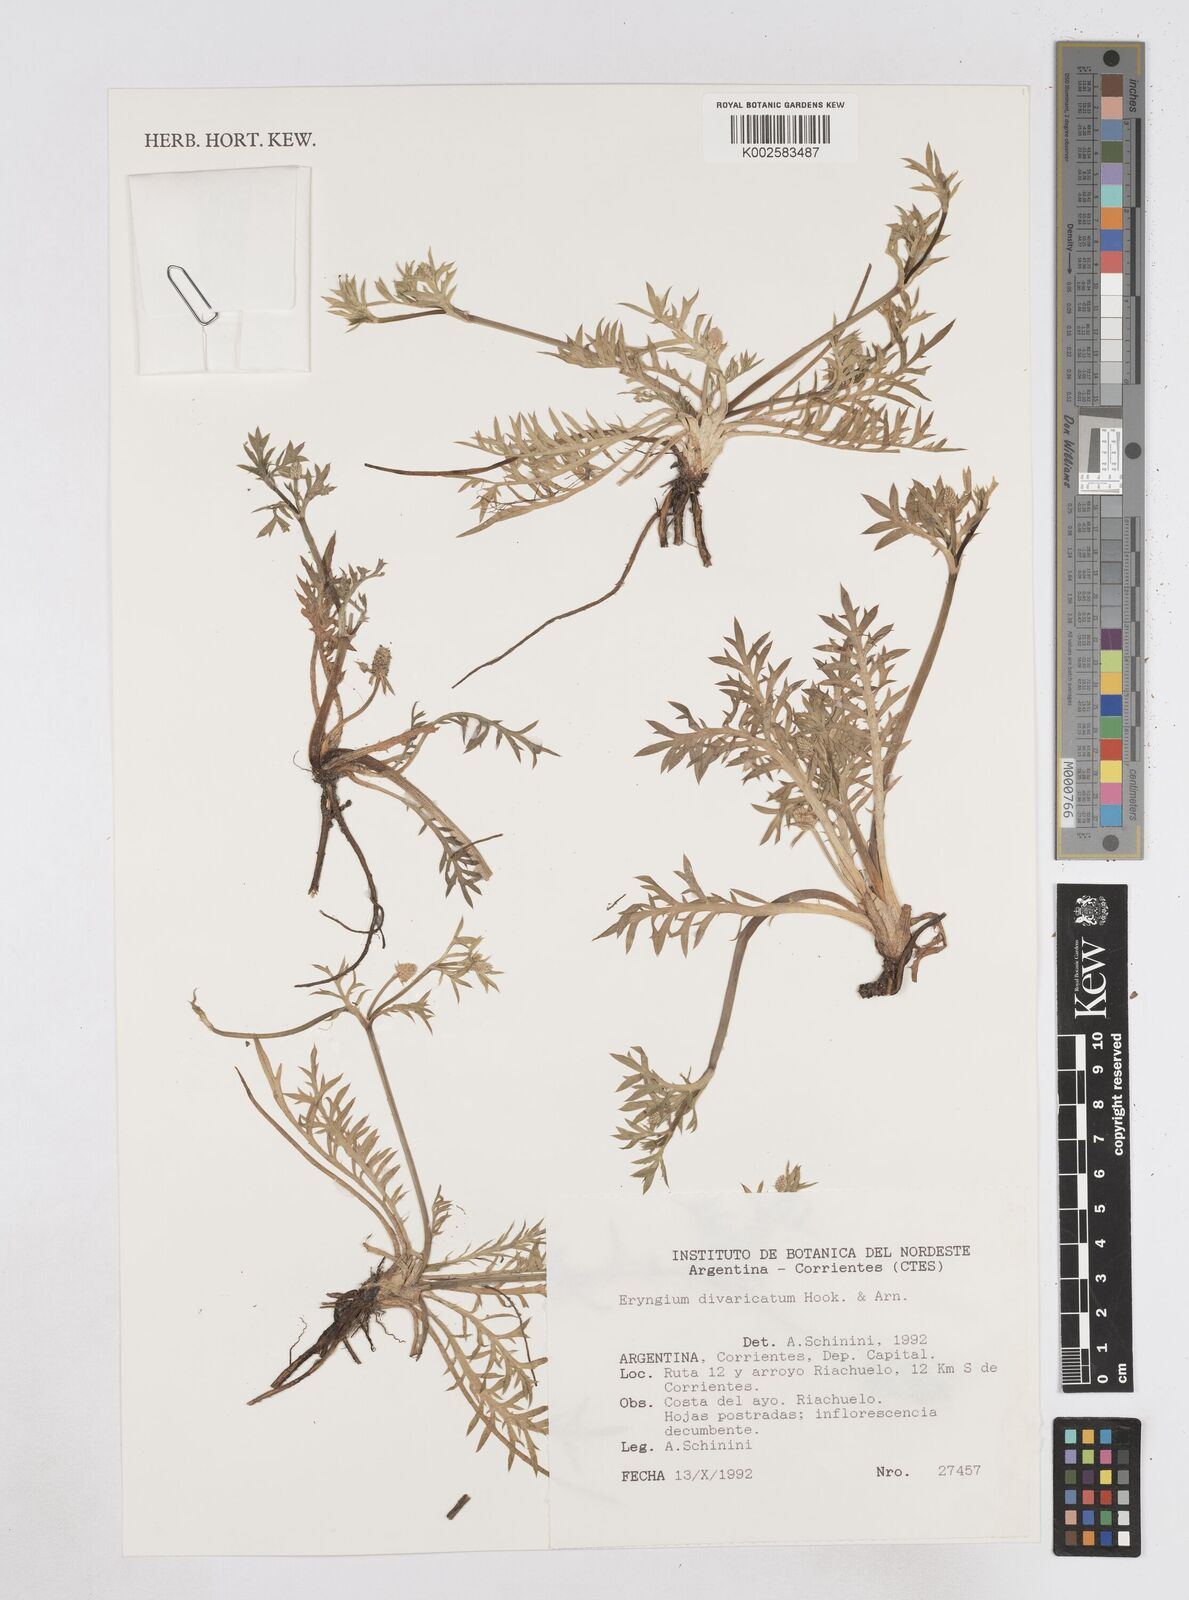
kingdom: Plantae
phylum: Tracheophyta
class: Magnoliopsida
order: Apiales
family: Apiaceae
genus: Eryngium
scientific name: Eryngium divaricatum
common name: Ballast eryngo
